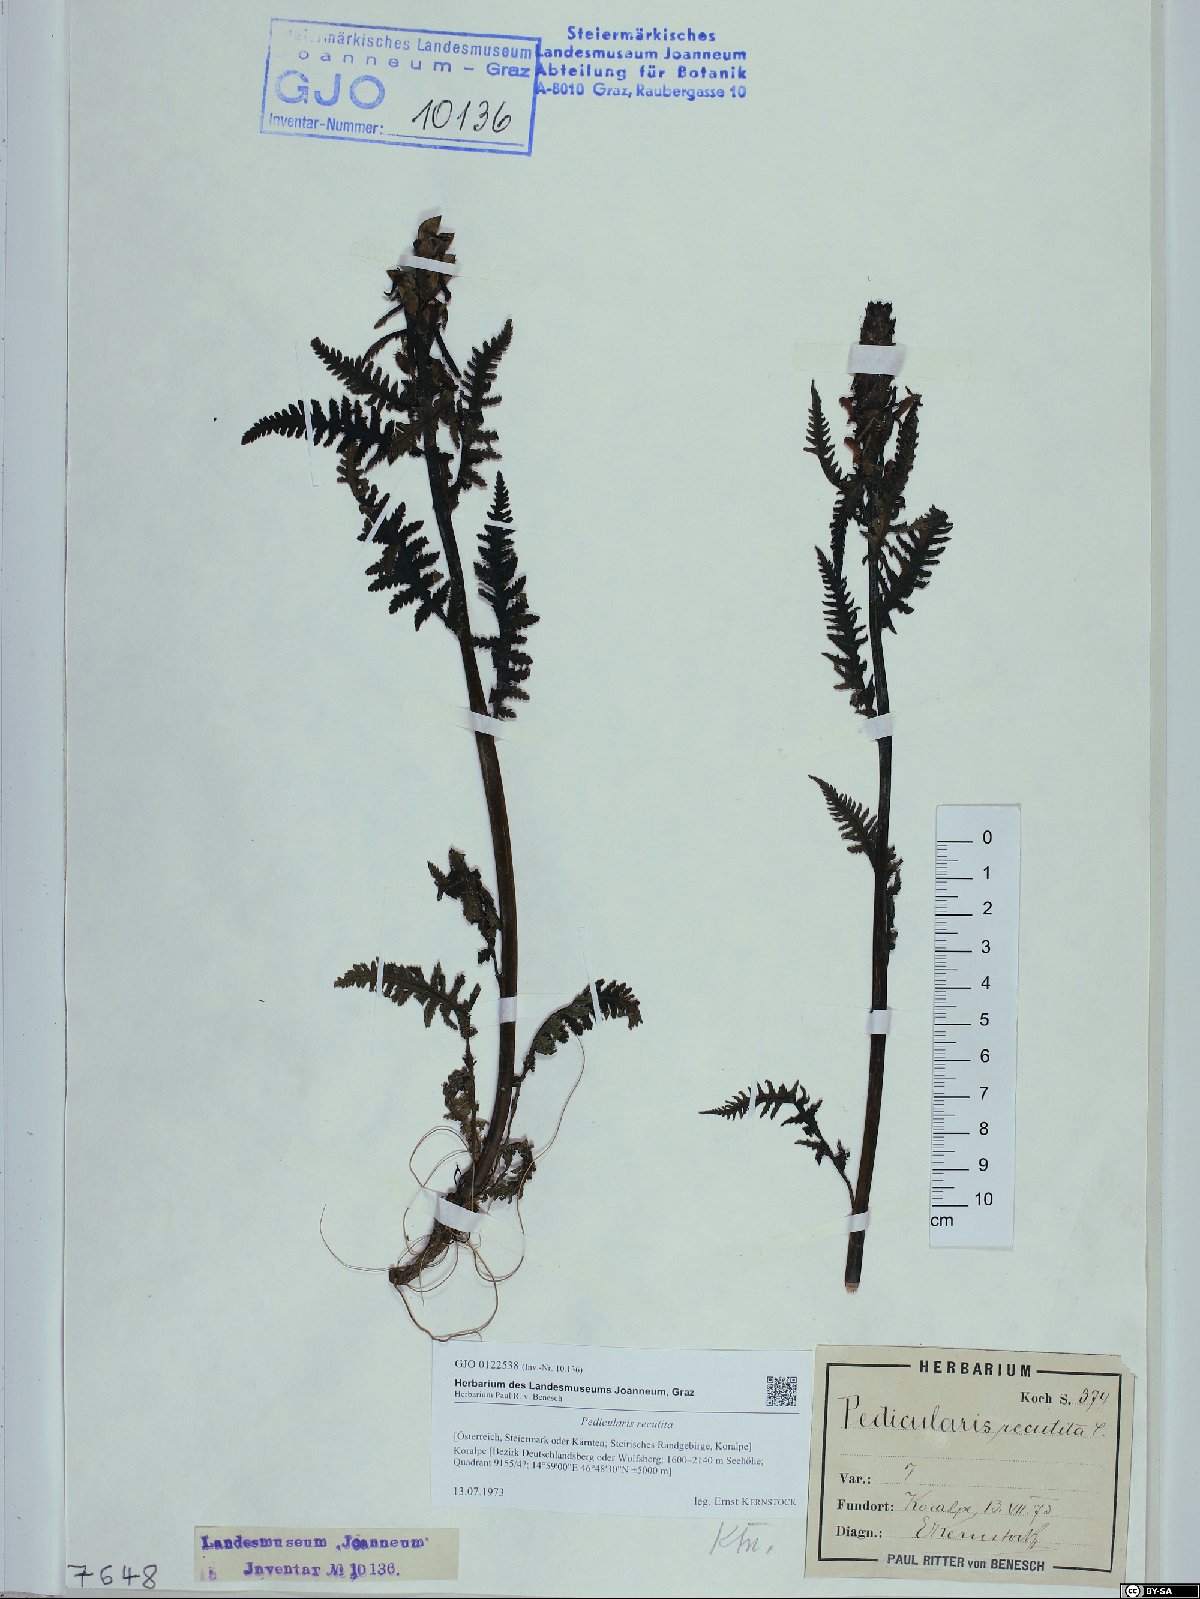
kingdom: Plantae
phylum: Tracheophyta
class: Magnoliopsida
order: Lamiales
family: Orobanchaceae
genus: Pedicularis
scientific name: Pedicularis recutita
